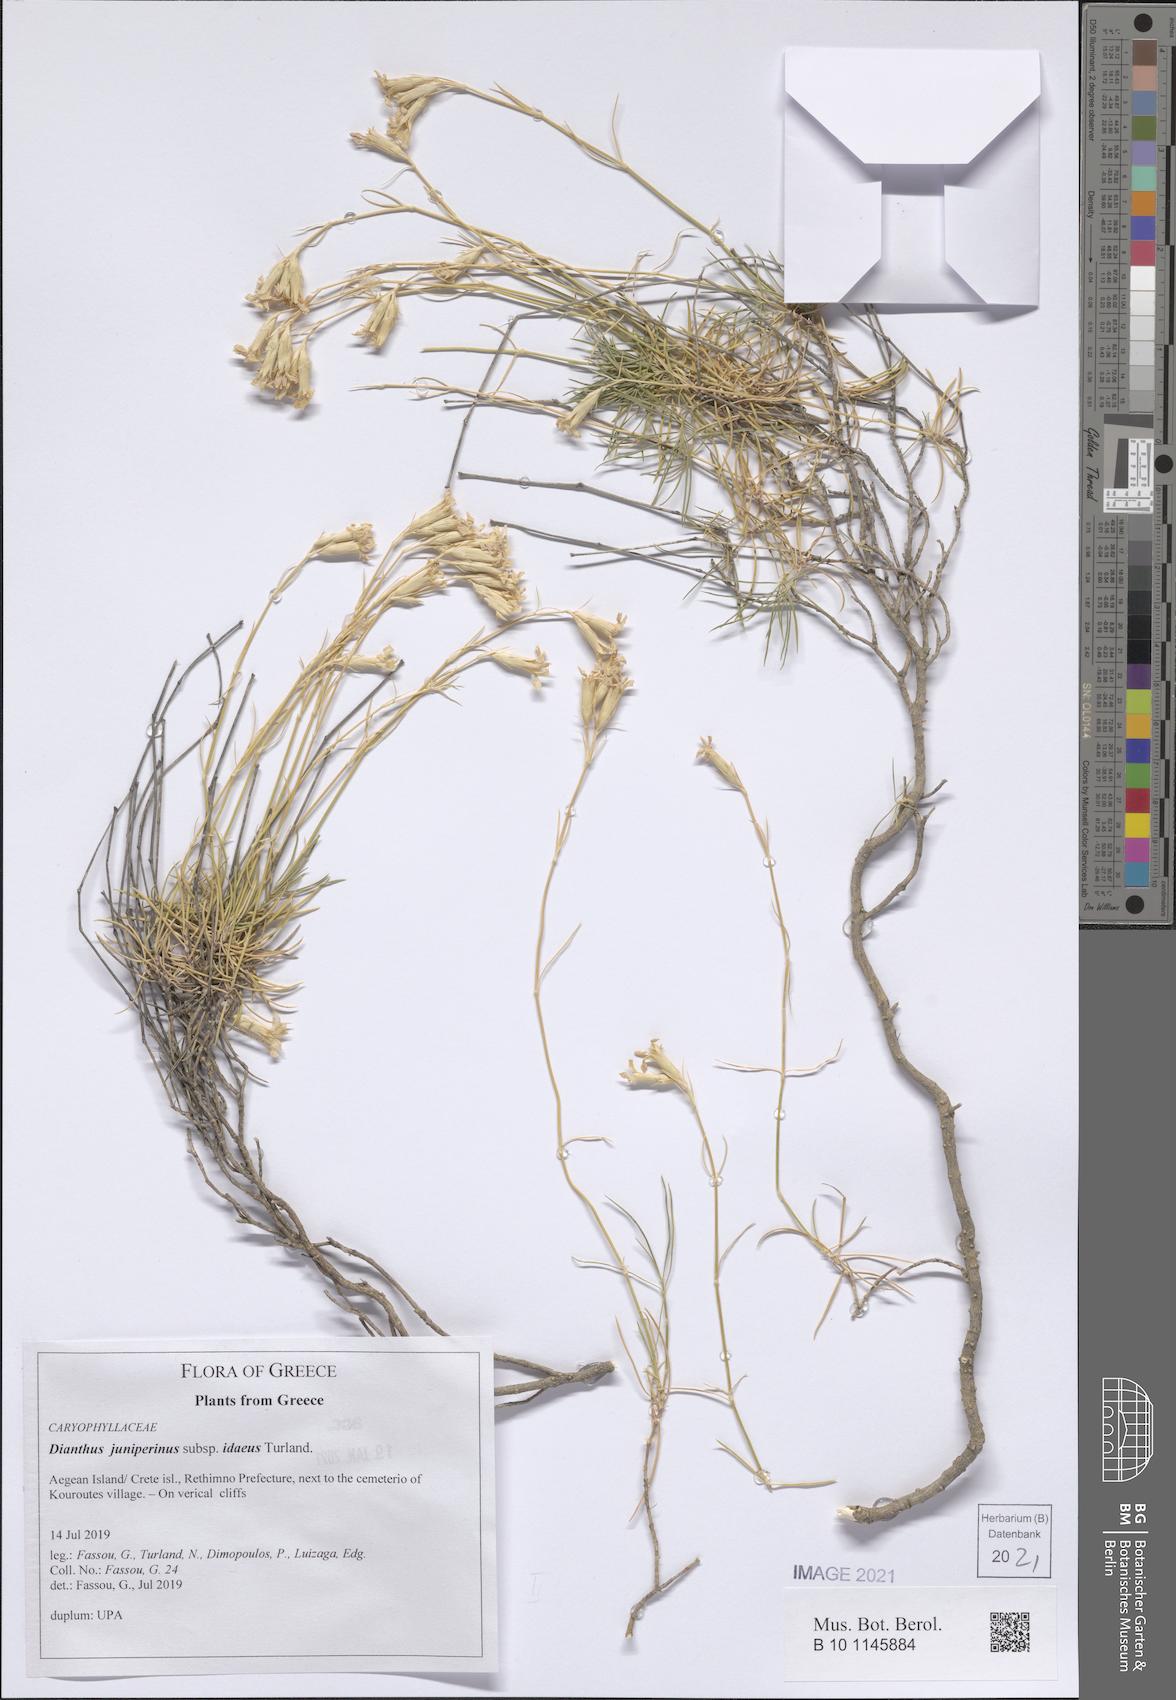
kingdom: Plantae
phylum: Tracheophyta
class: Magnoliopsida
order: Caryophyllales
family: Caryophyllaceae
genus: Dianthus
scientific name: Dianthus juniperinus
